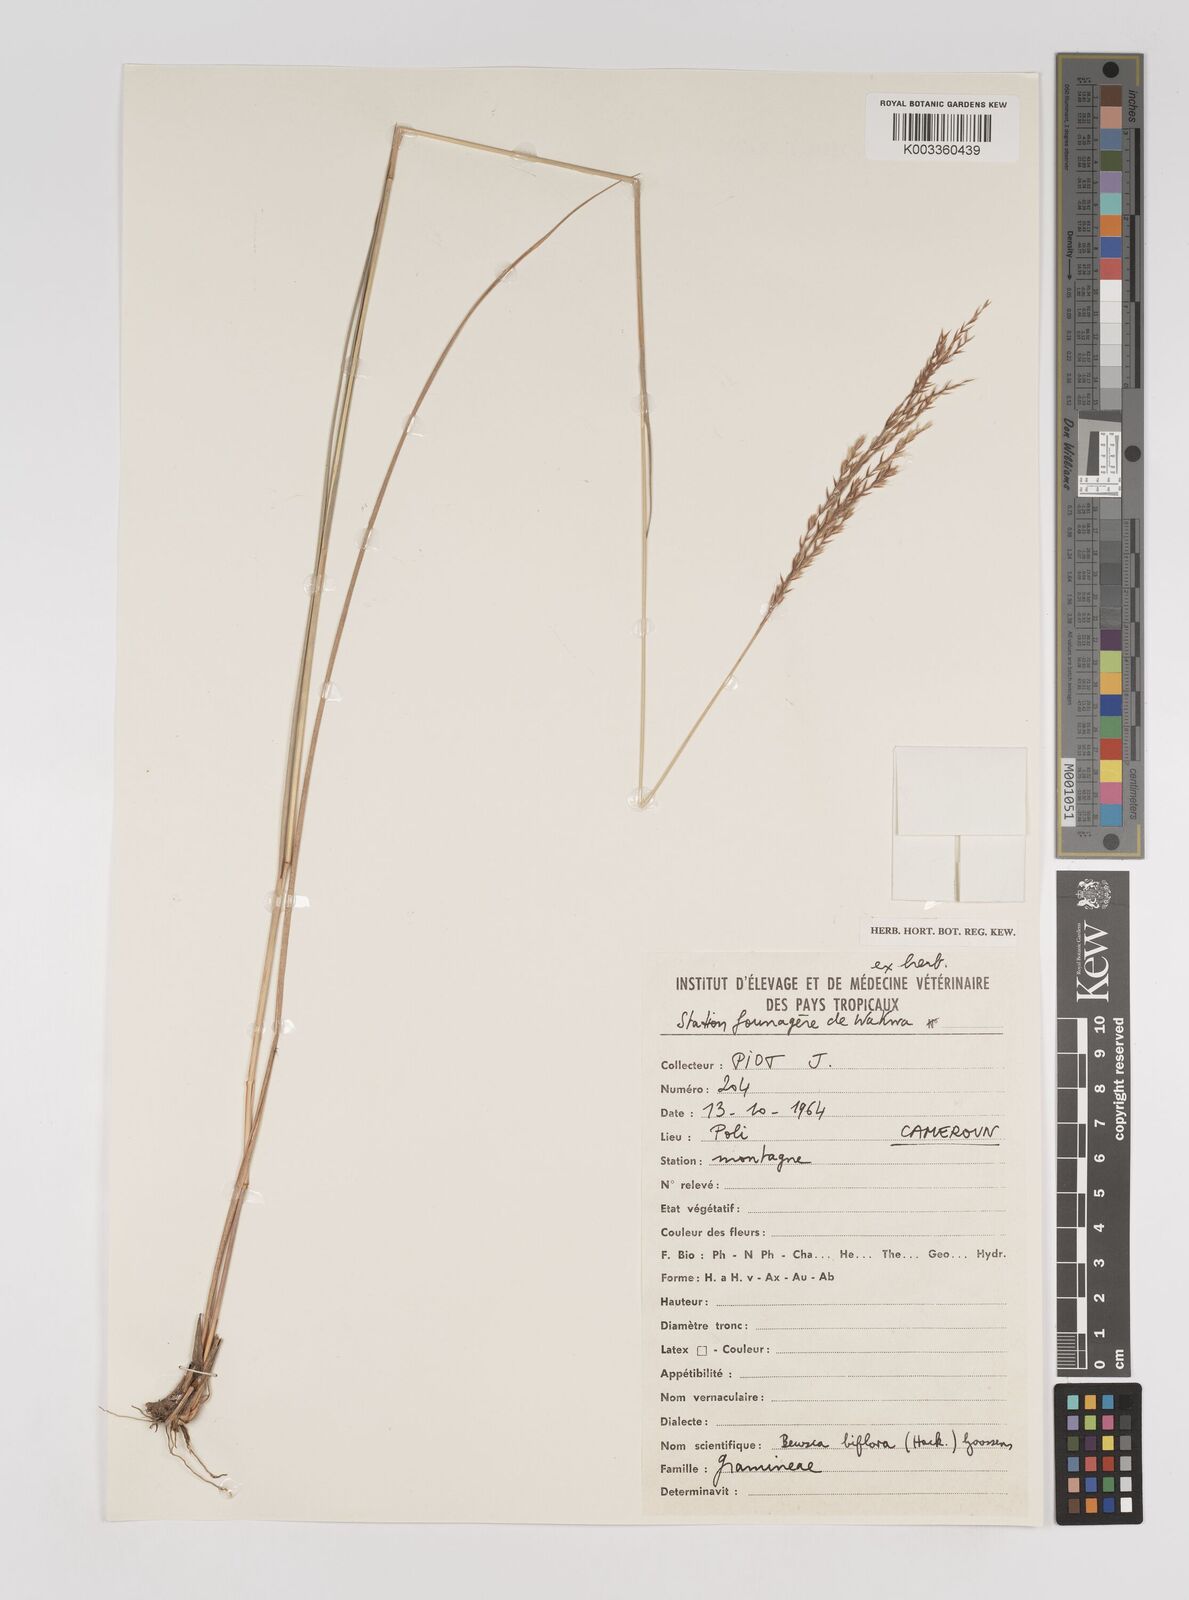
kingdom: Plantae
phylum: Tracheophyta
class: Liliopsida
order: Poales
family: Poaceae
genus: Bewsia
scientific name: Bewsia biflora
